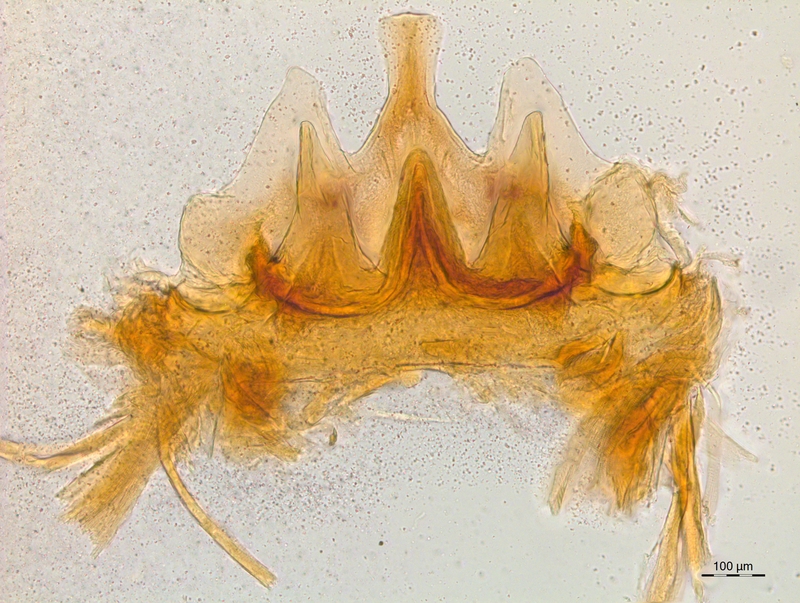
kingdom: Animalia
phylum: Arthropoda
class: Diplopoda
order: Chordeumatida
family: Craspedosomatidae
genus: Craspedosoma
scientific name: Craspedosoma rawlinsii
